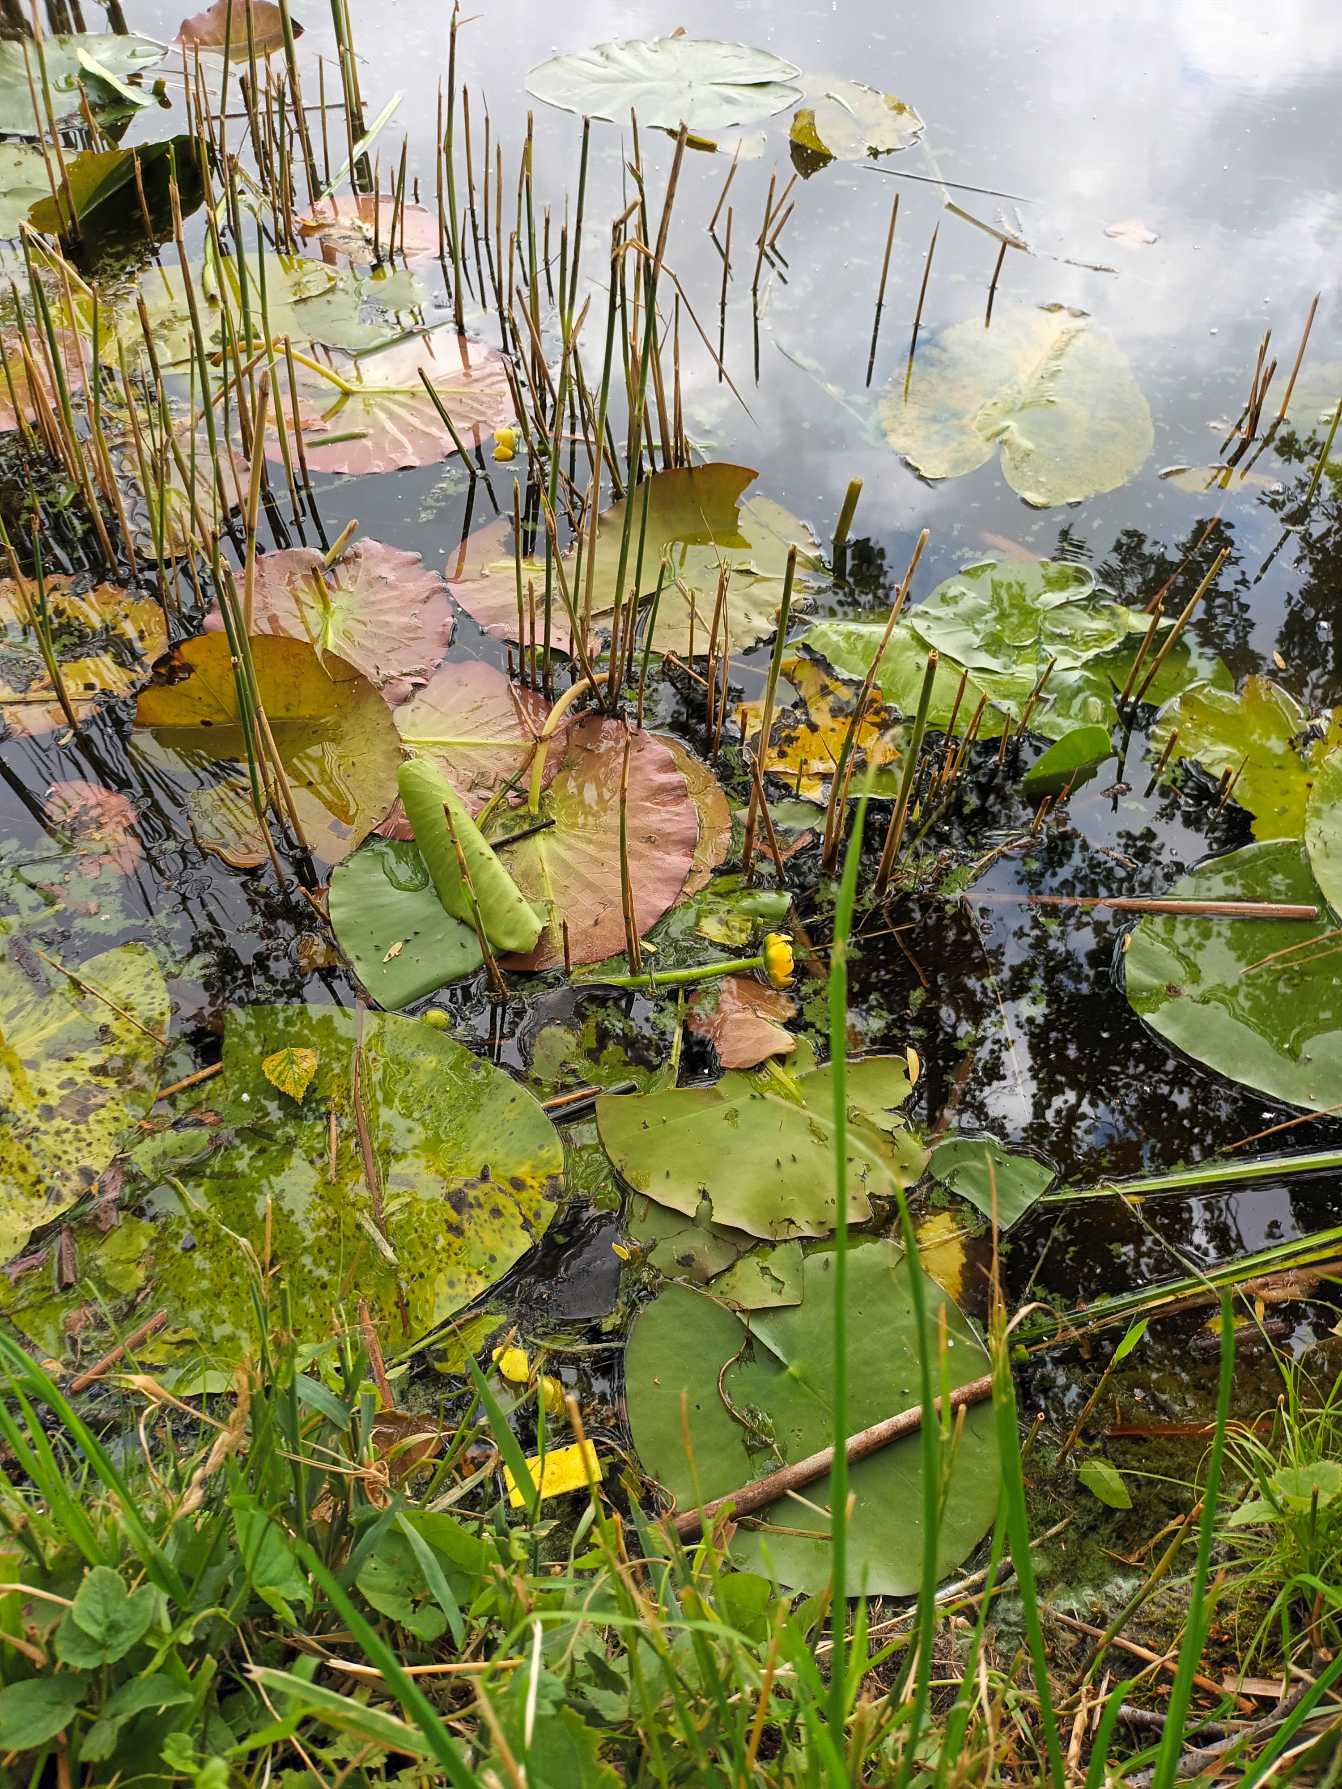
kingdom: Plantae
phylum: Tracheophyta
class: Magnoliopsida
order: Nymphaeales
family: Nymphaeaceae
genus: Nuphar
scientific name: Nuphar lutea
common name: Gul åkande
